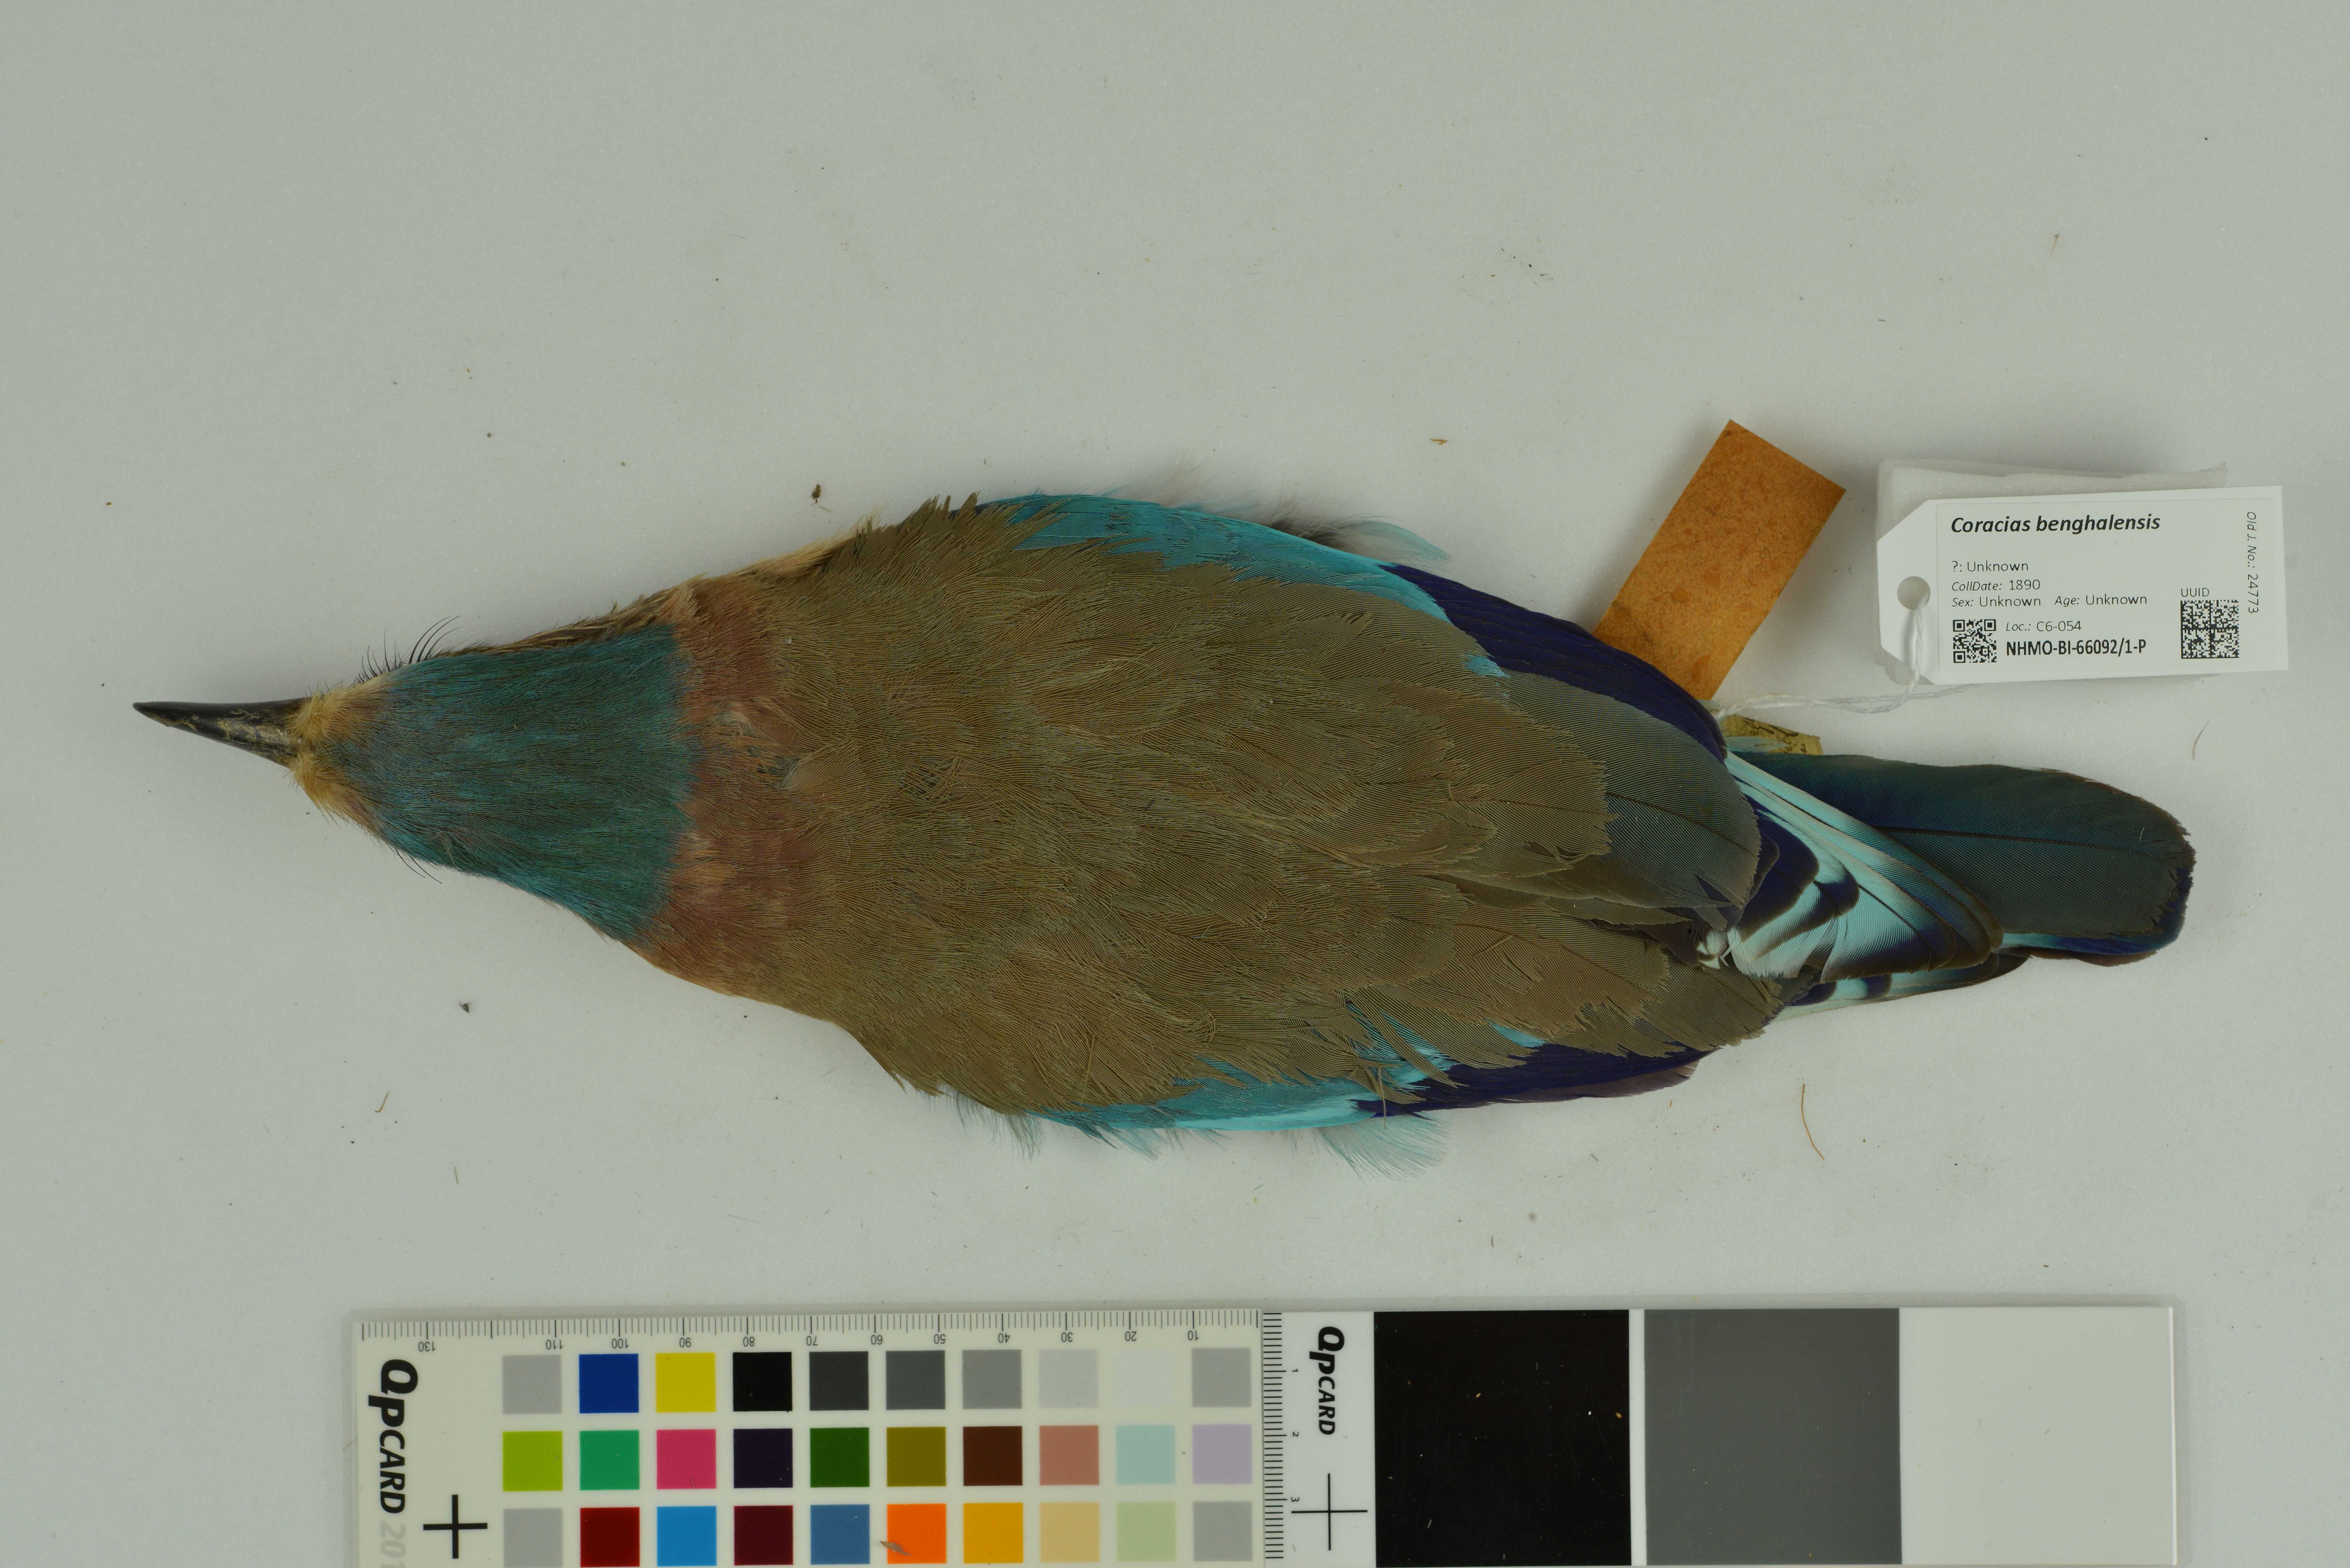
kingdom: Animalia
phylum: Chordata
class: Aves
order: Coraciiformes
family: Coraciidae
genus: Coracias
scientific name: Coracias benghalensis
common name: Indian roller
